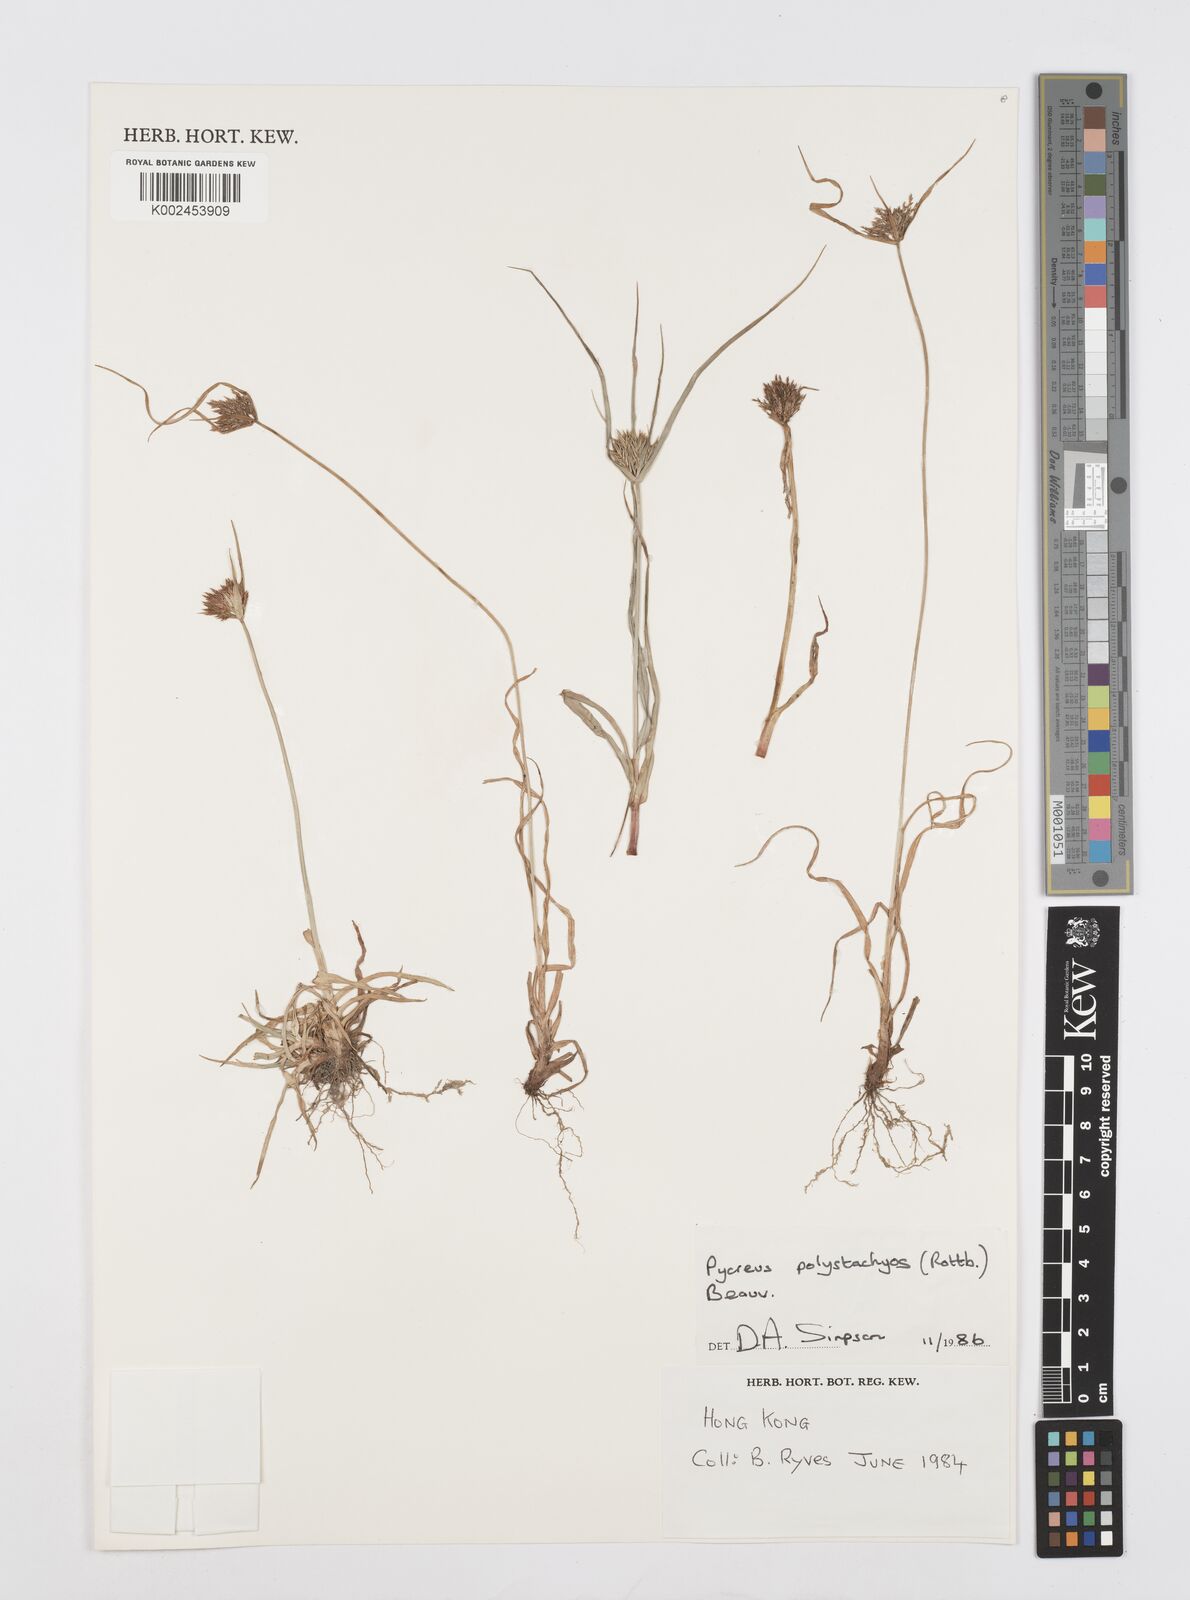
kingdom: Plantae
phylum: Tracheophyta
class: Liliopsida
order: Poales
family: Cyperaceae
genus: Cyperus
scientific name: Cyperus polystachyos
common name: Bunchy flat sedge
